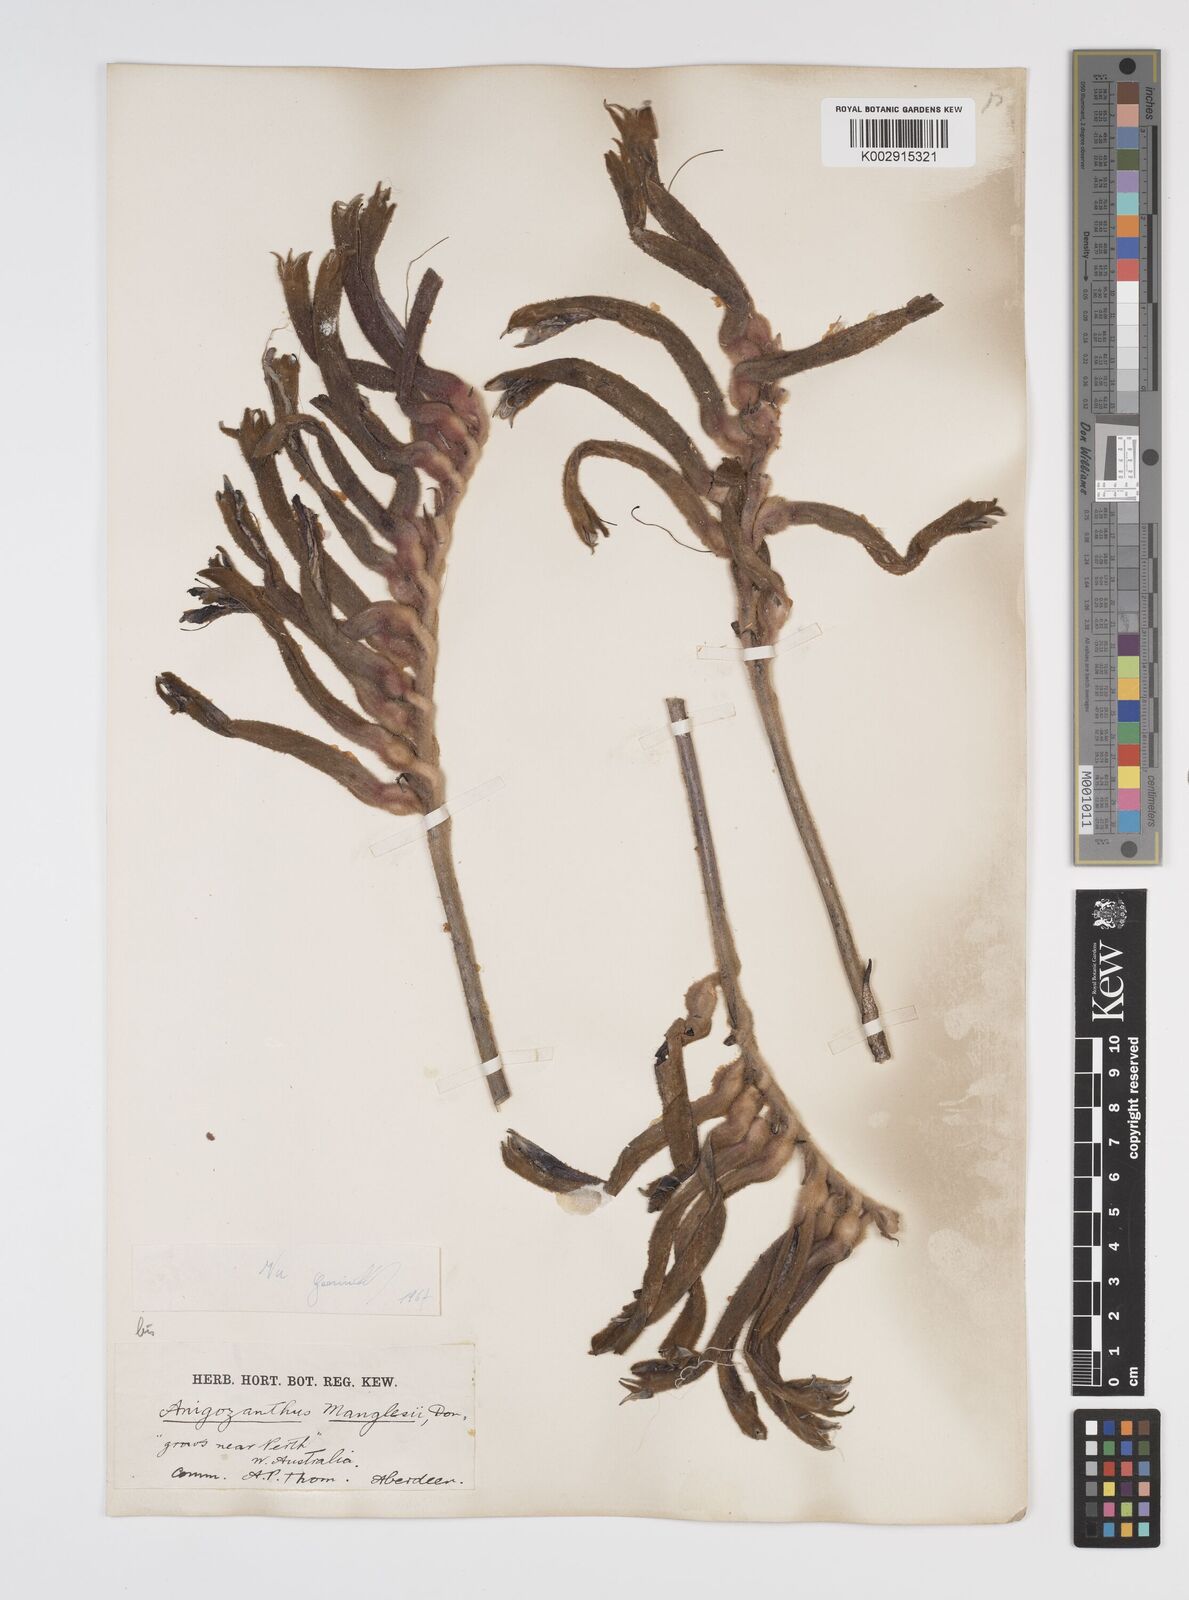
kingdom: Plantae
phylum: Tracheophyta
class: Liliopsida
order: Commelinales
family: Haemodoraceae
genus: Anigozanthos
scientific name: Anigozanthos manglesii
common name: Mangles's kangaroo-paw
